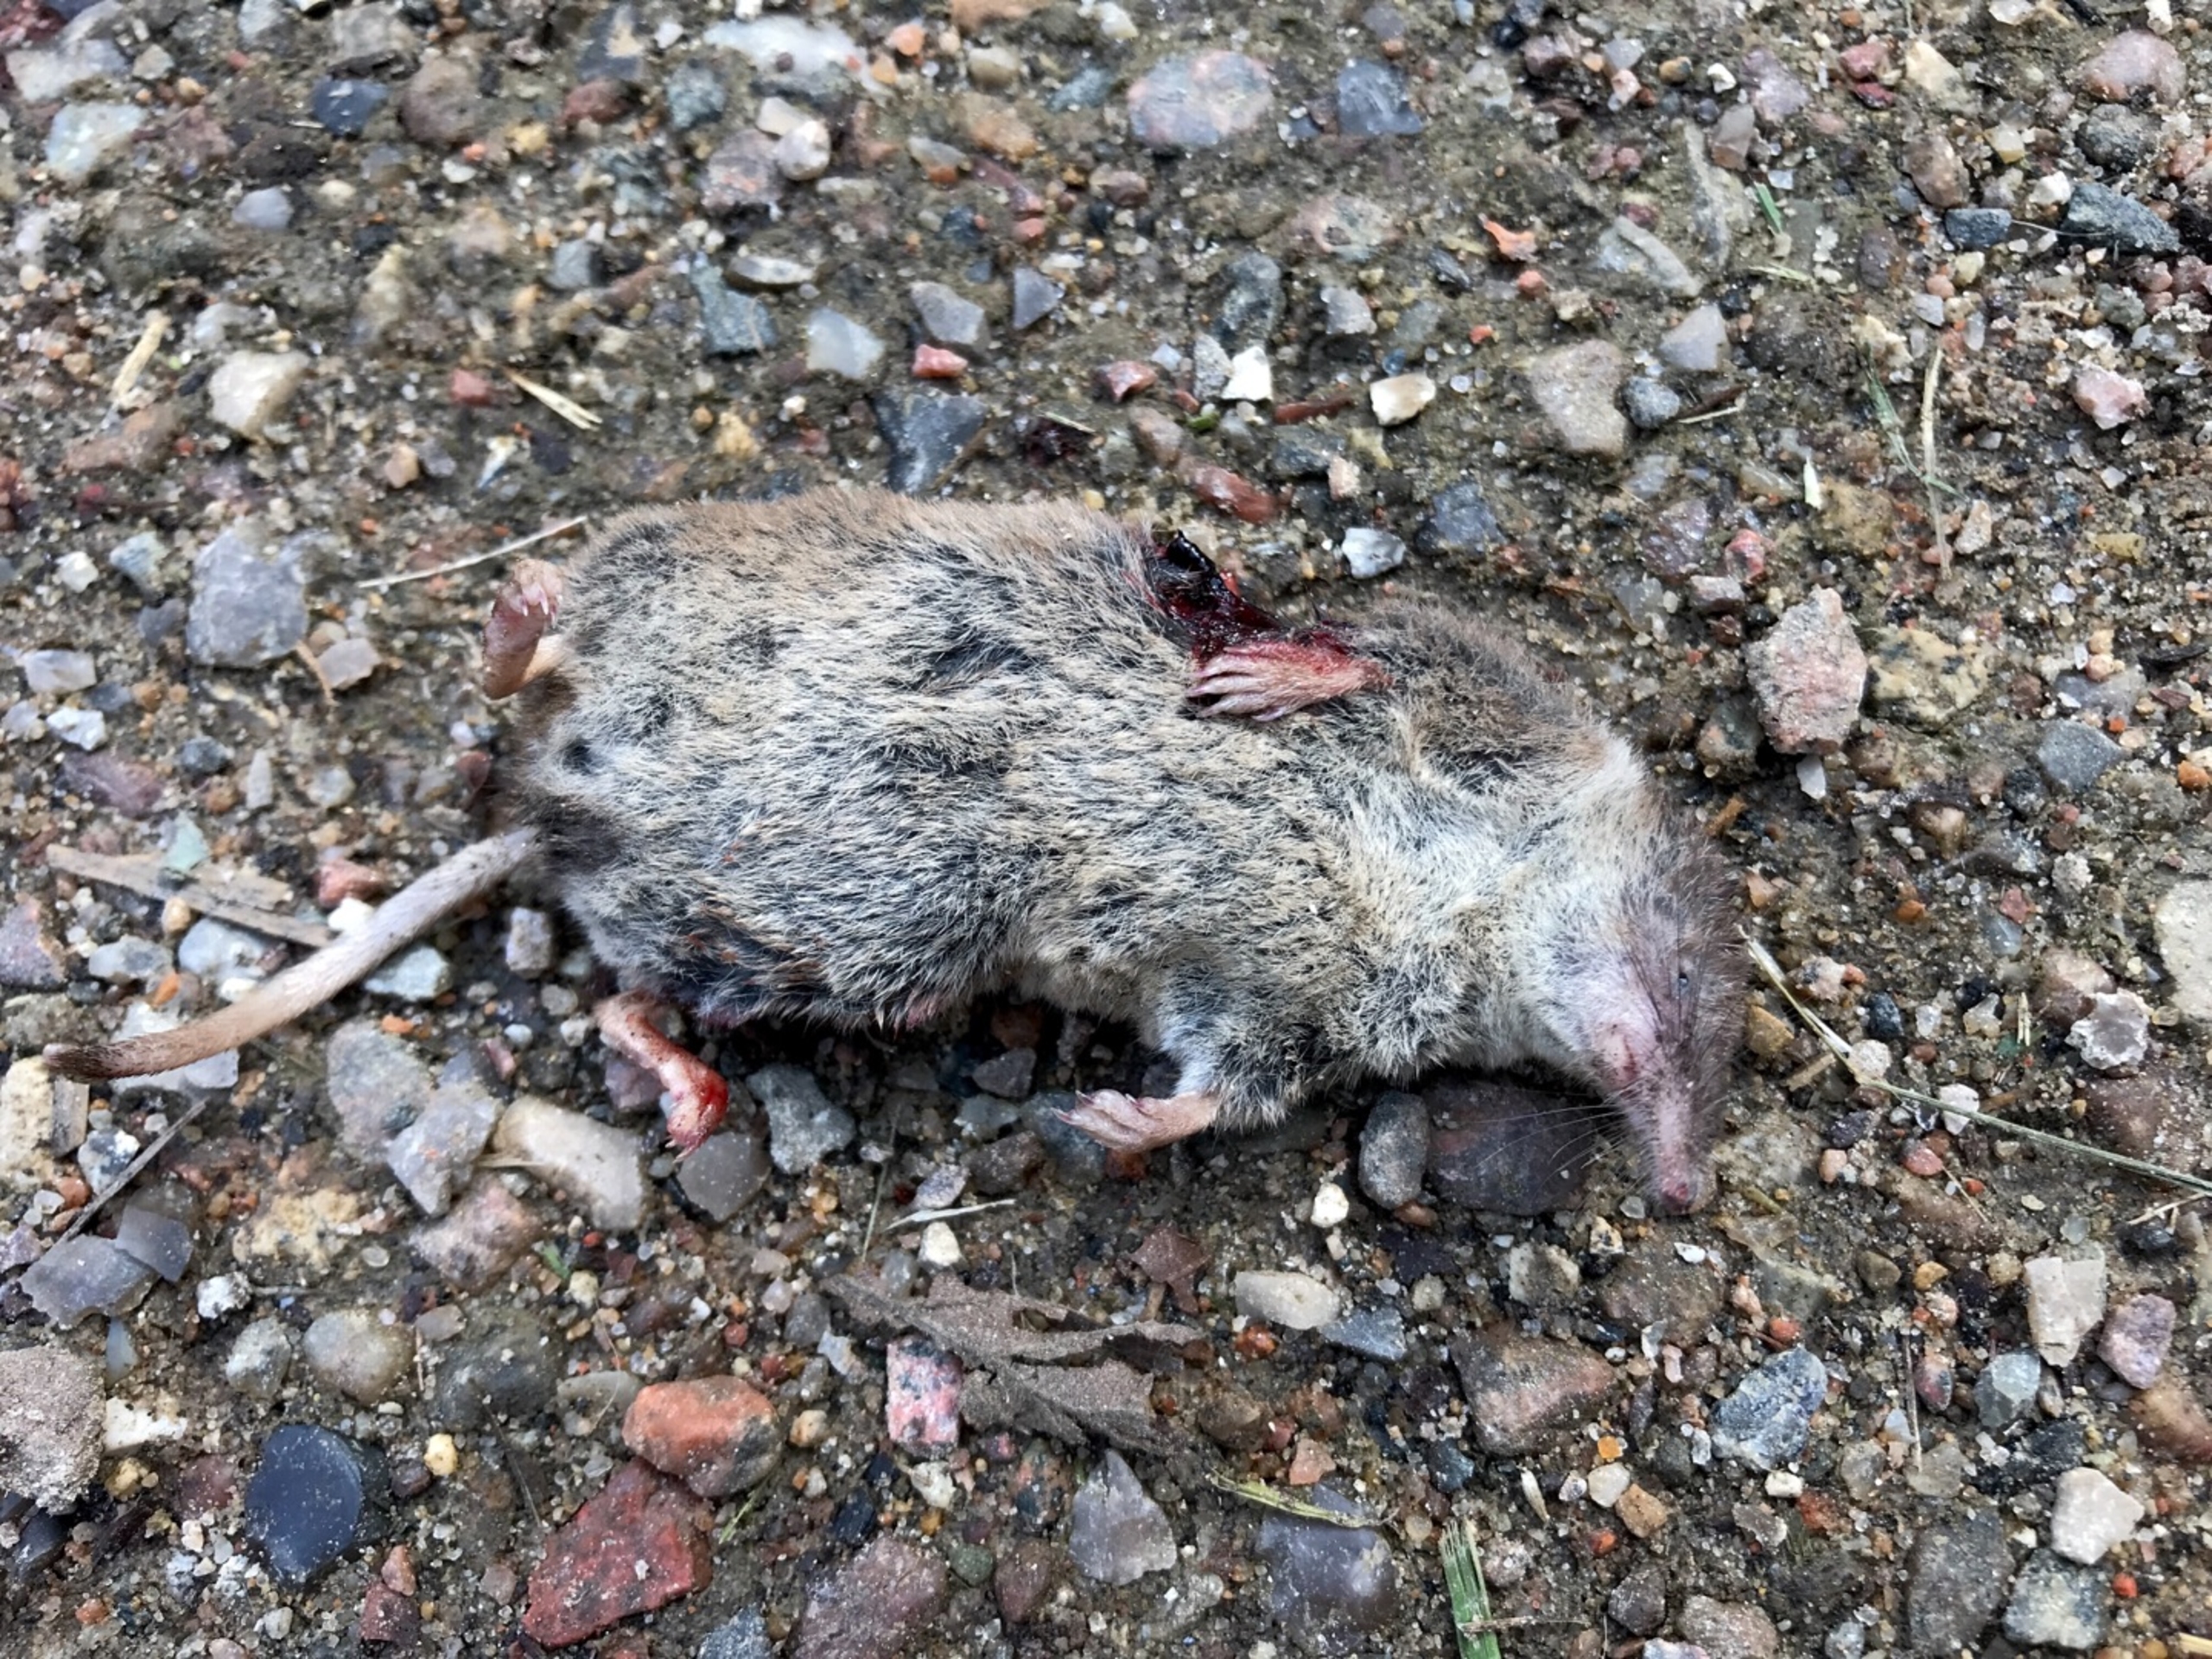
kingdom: Animalia
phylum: Chordata
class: Mammalia
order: Soricomorpha
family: Soricidae
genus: Sorex
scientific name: Sorex araneus
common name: Almindelig spidsmus
